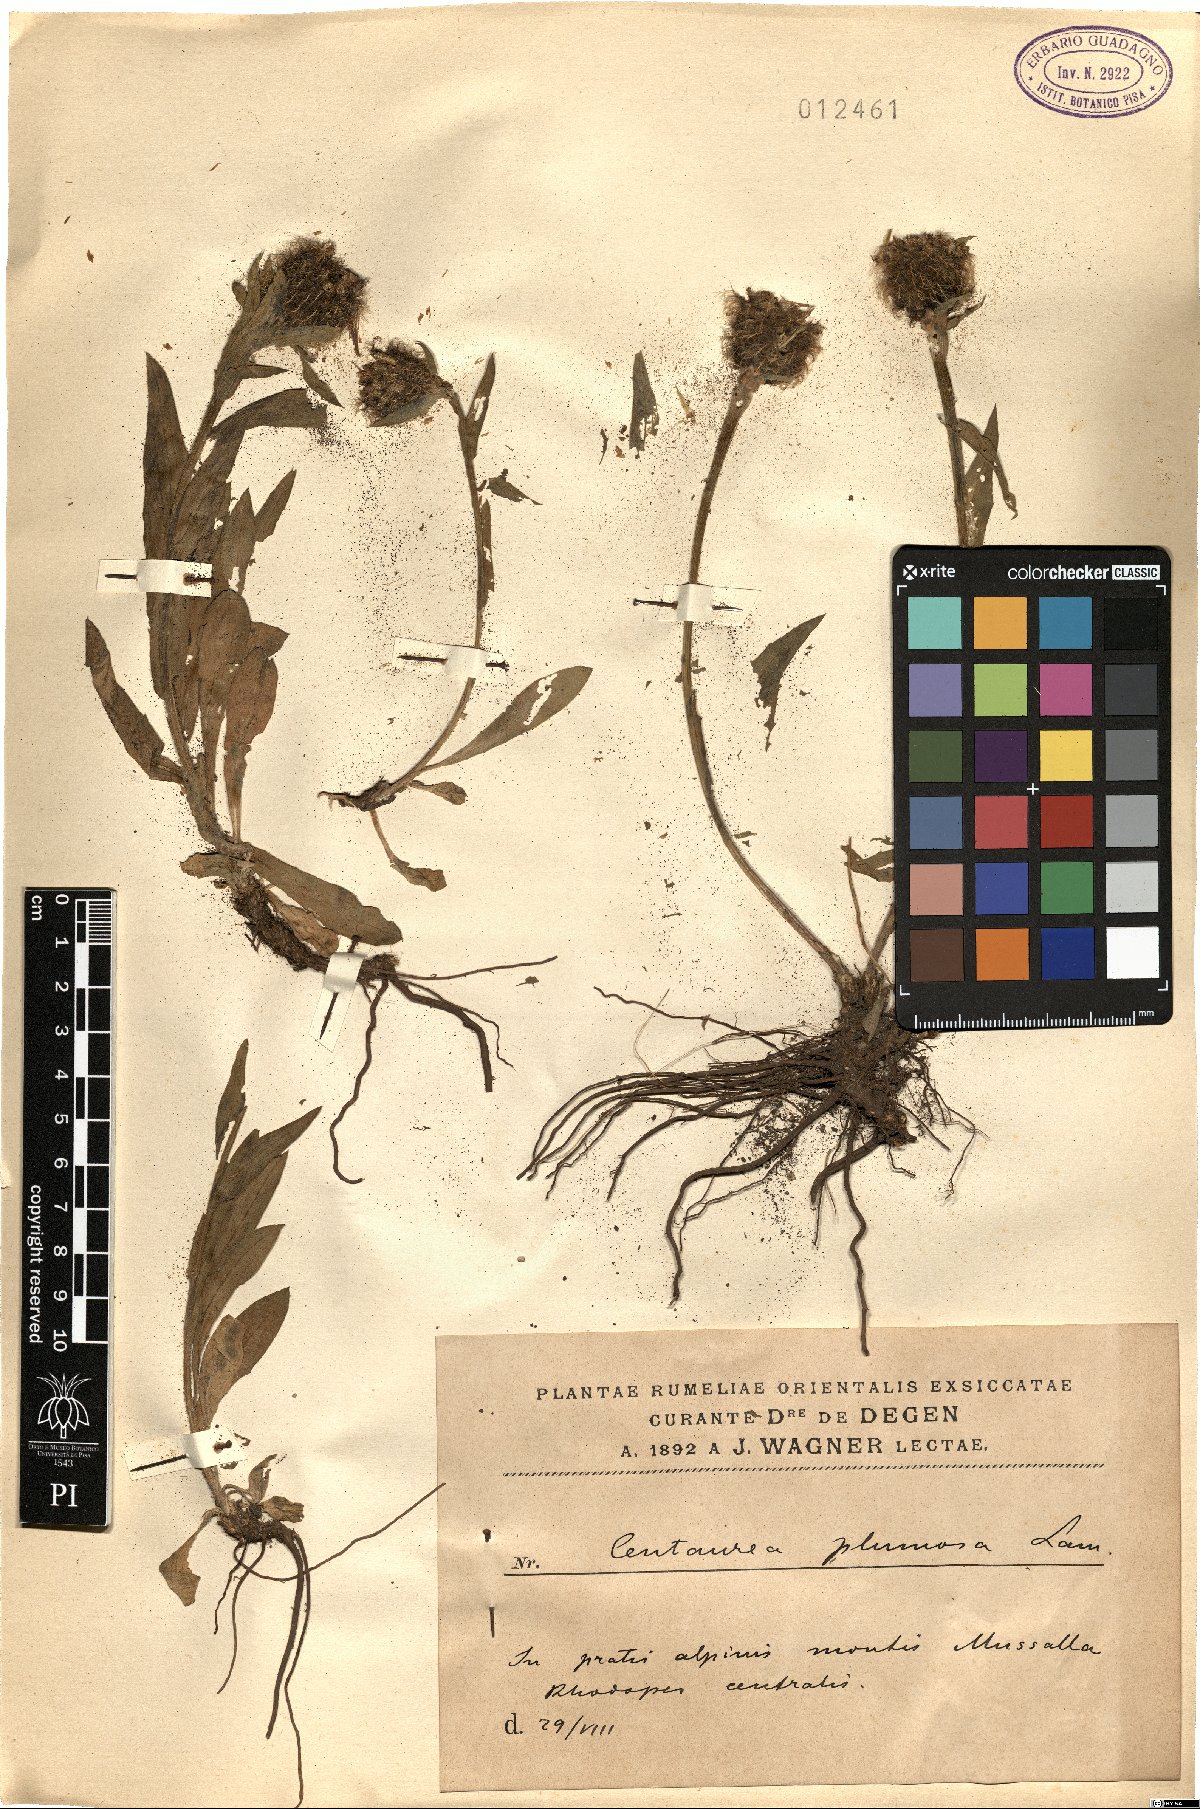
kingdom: Plantae
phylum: Tracheophyta
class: Magnoliopsida
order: Asterales
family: Asteraceae
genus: Centaurea
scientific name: Centaurea nervosa
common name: Singleflower knapweed
